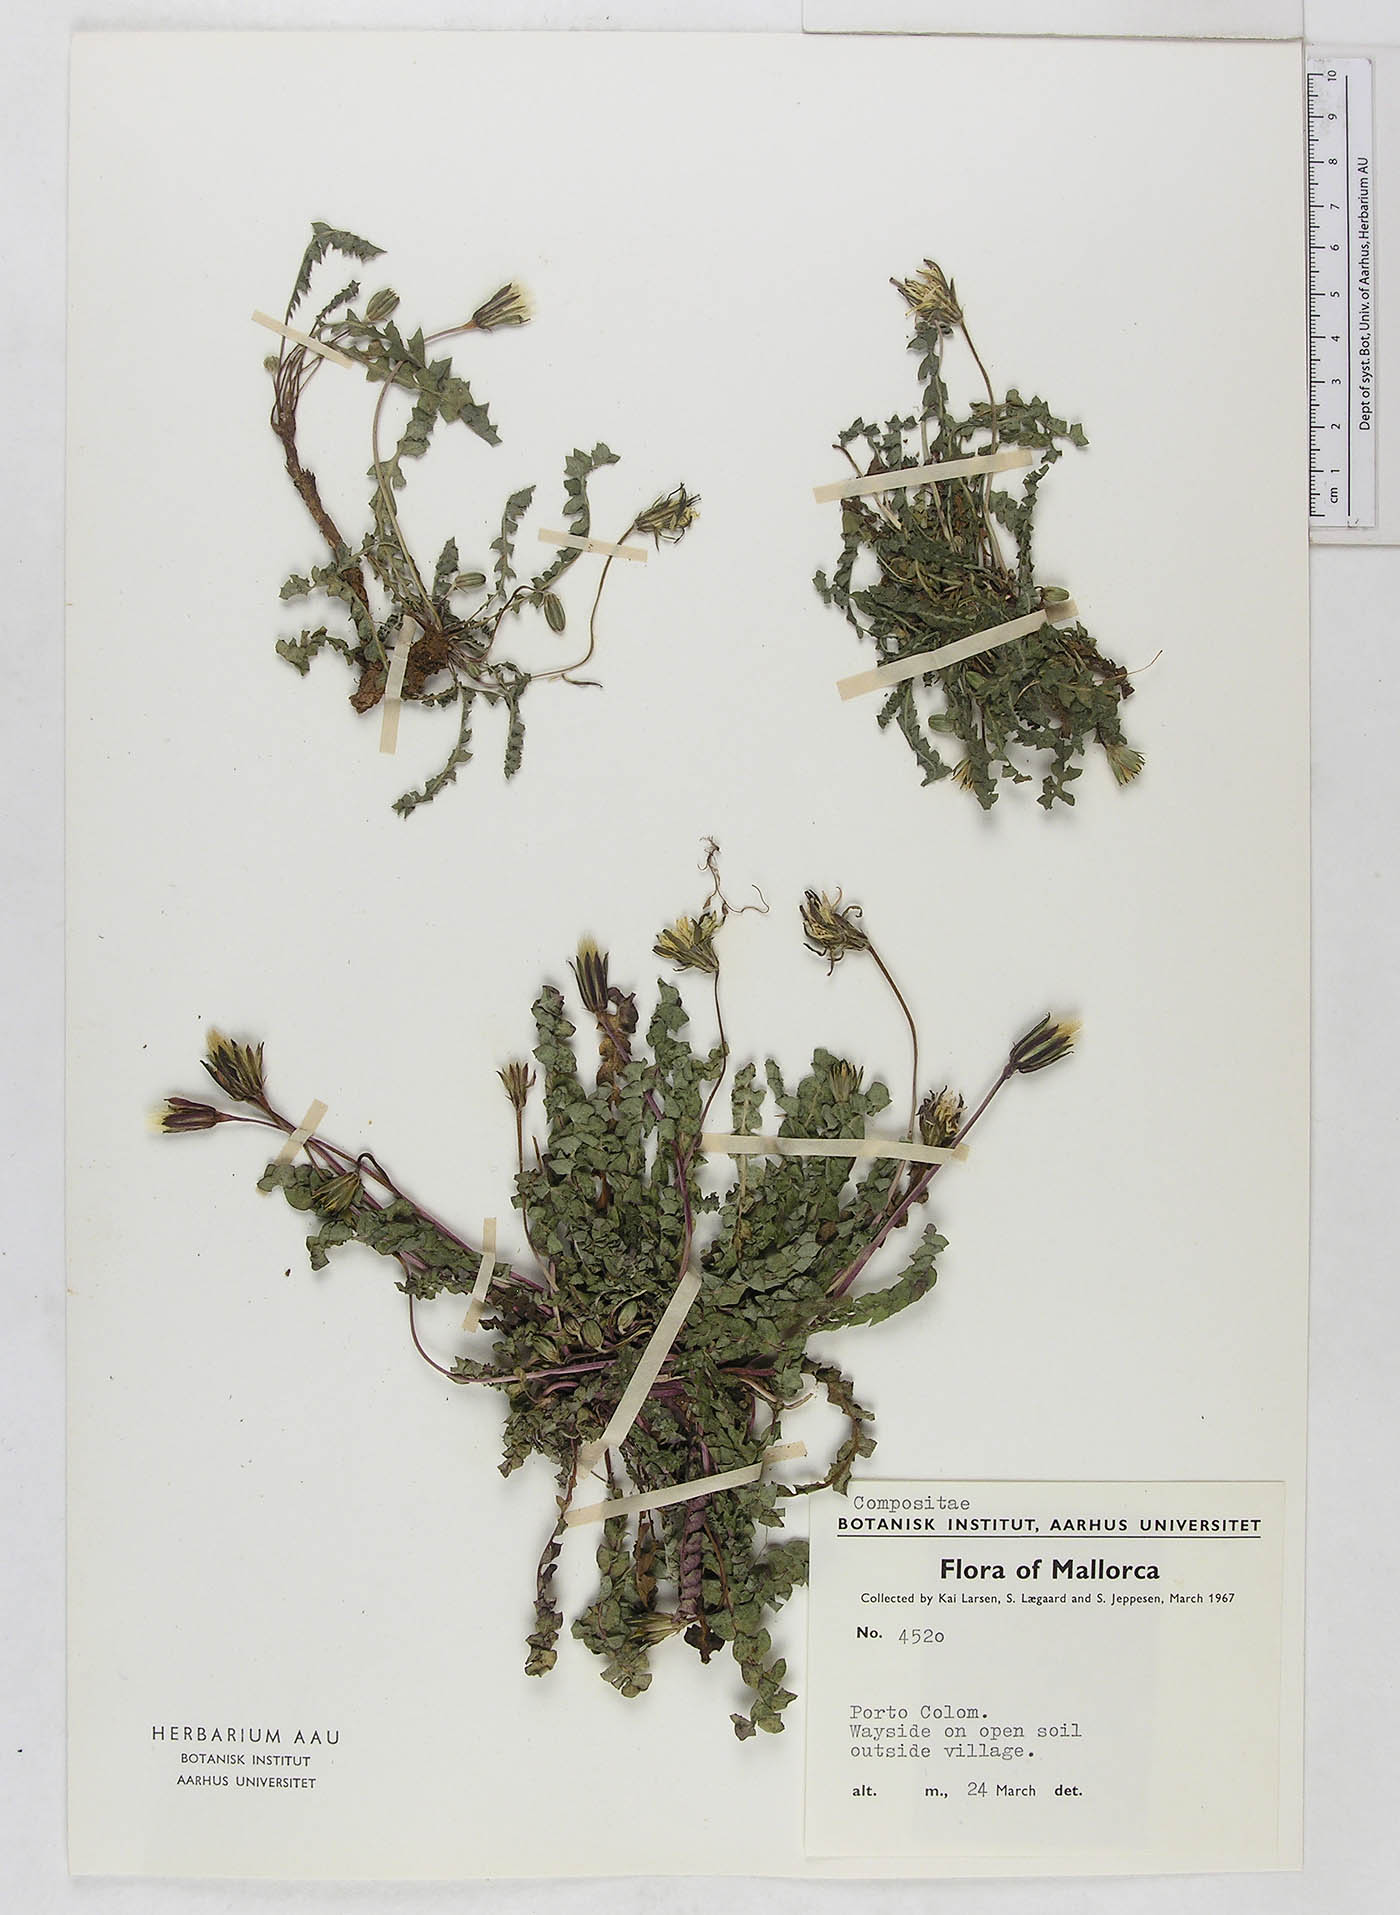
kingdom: Plantae
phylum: Tracheophyta
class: Magnoliopsida
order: Asterales
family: Asteraceae
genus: Hyoseris
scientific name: Hyoseris radiata
